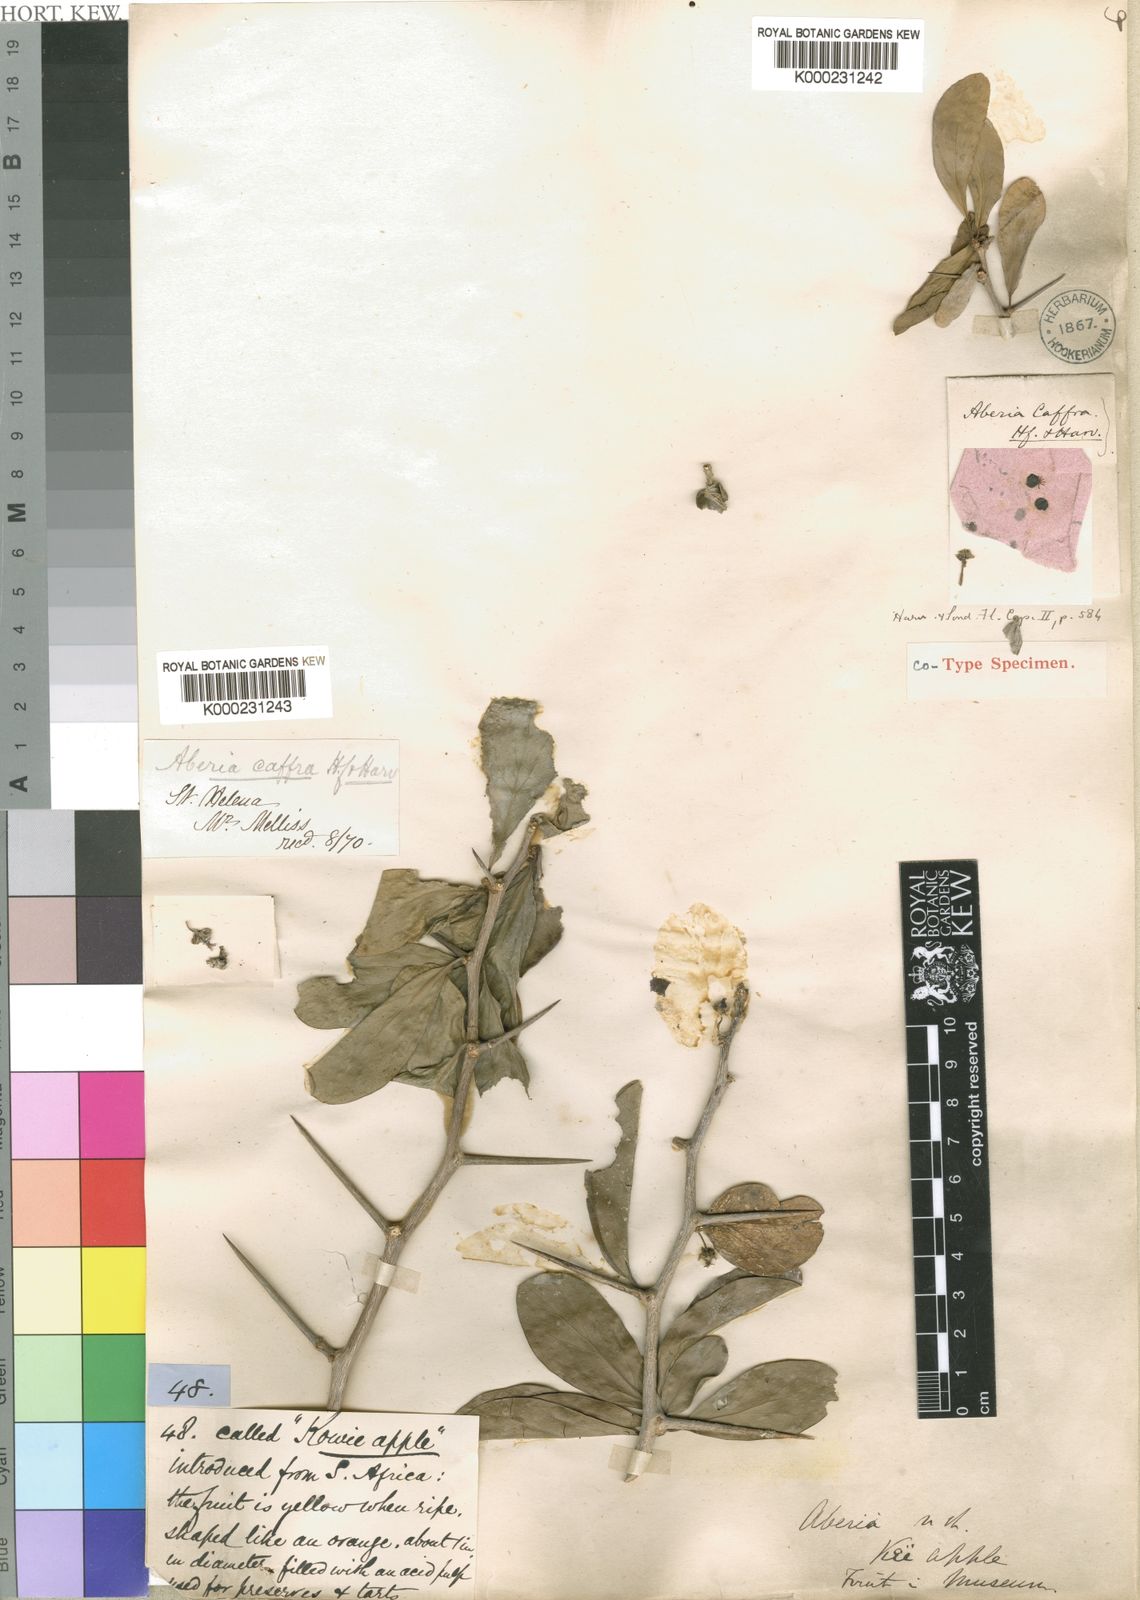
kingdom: Plantae
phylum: Tracheophyta
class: Magnoliopsida
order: Malpighiales
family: Salicaceae
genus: Dovyalis
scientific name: Dovyalis caffra
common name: Kei-apple
